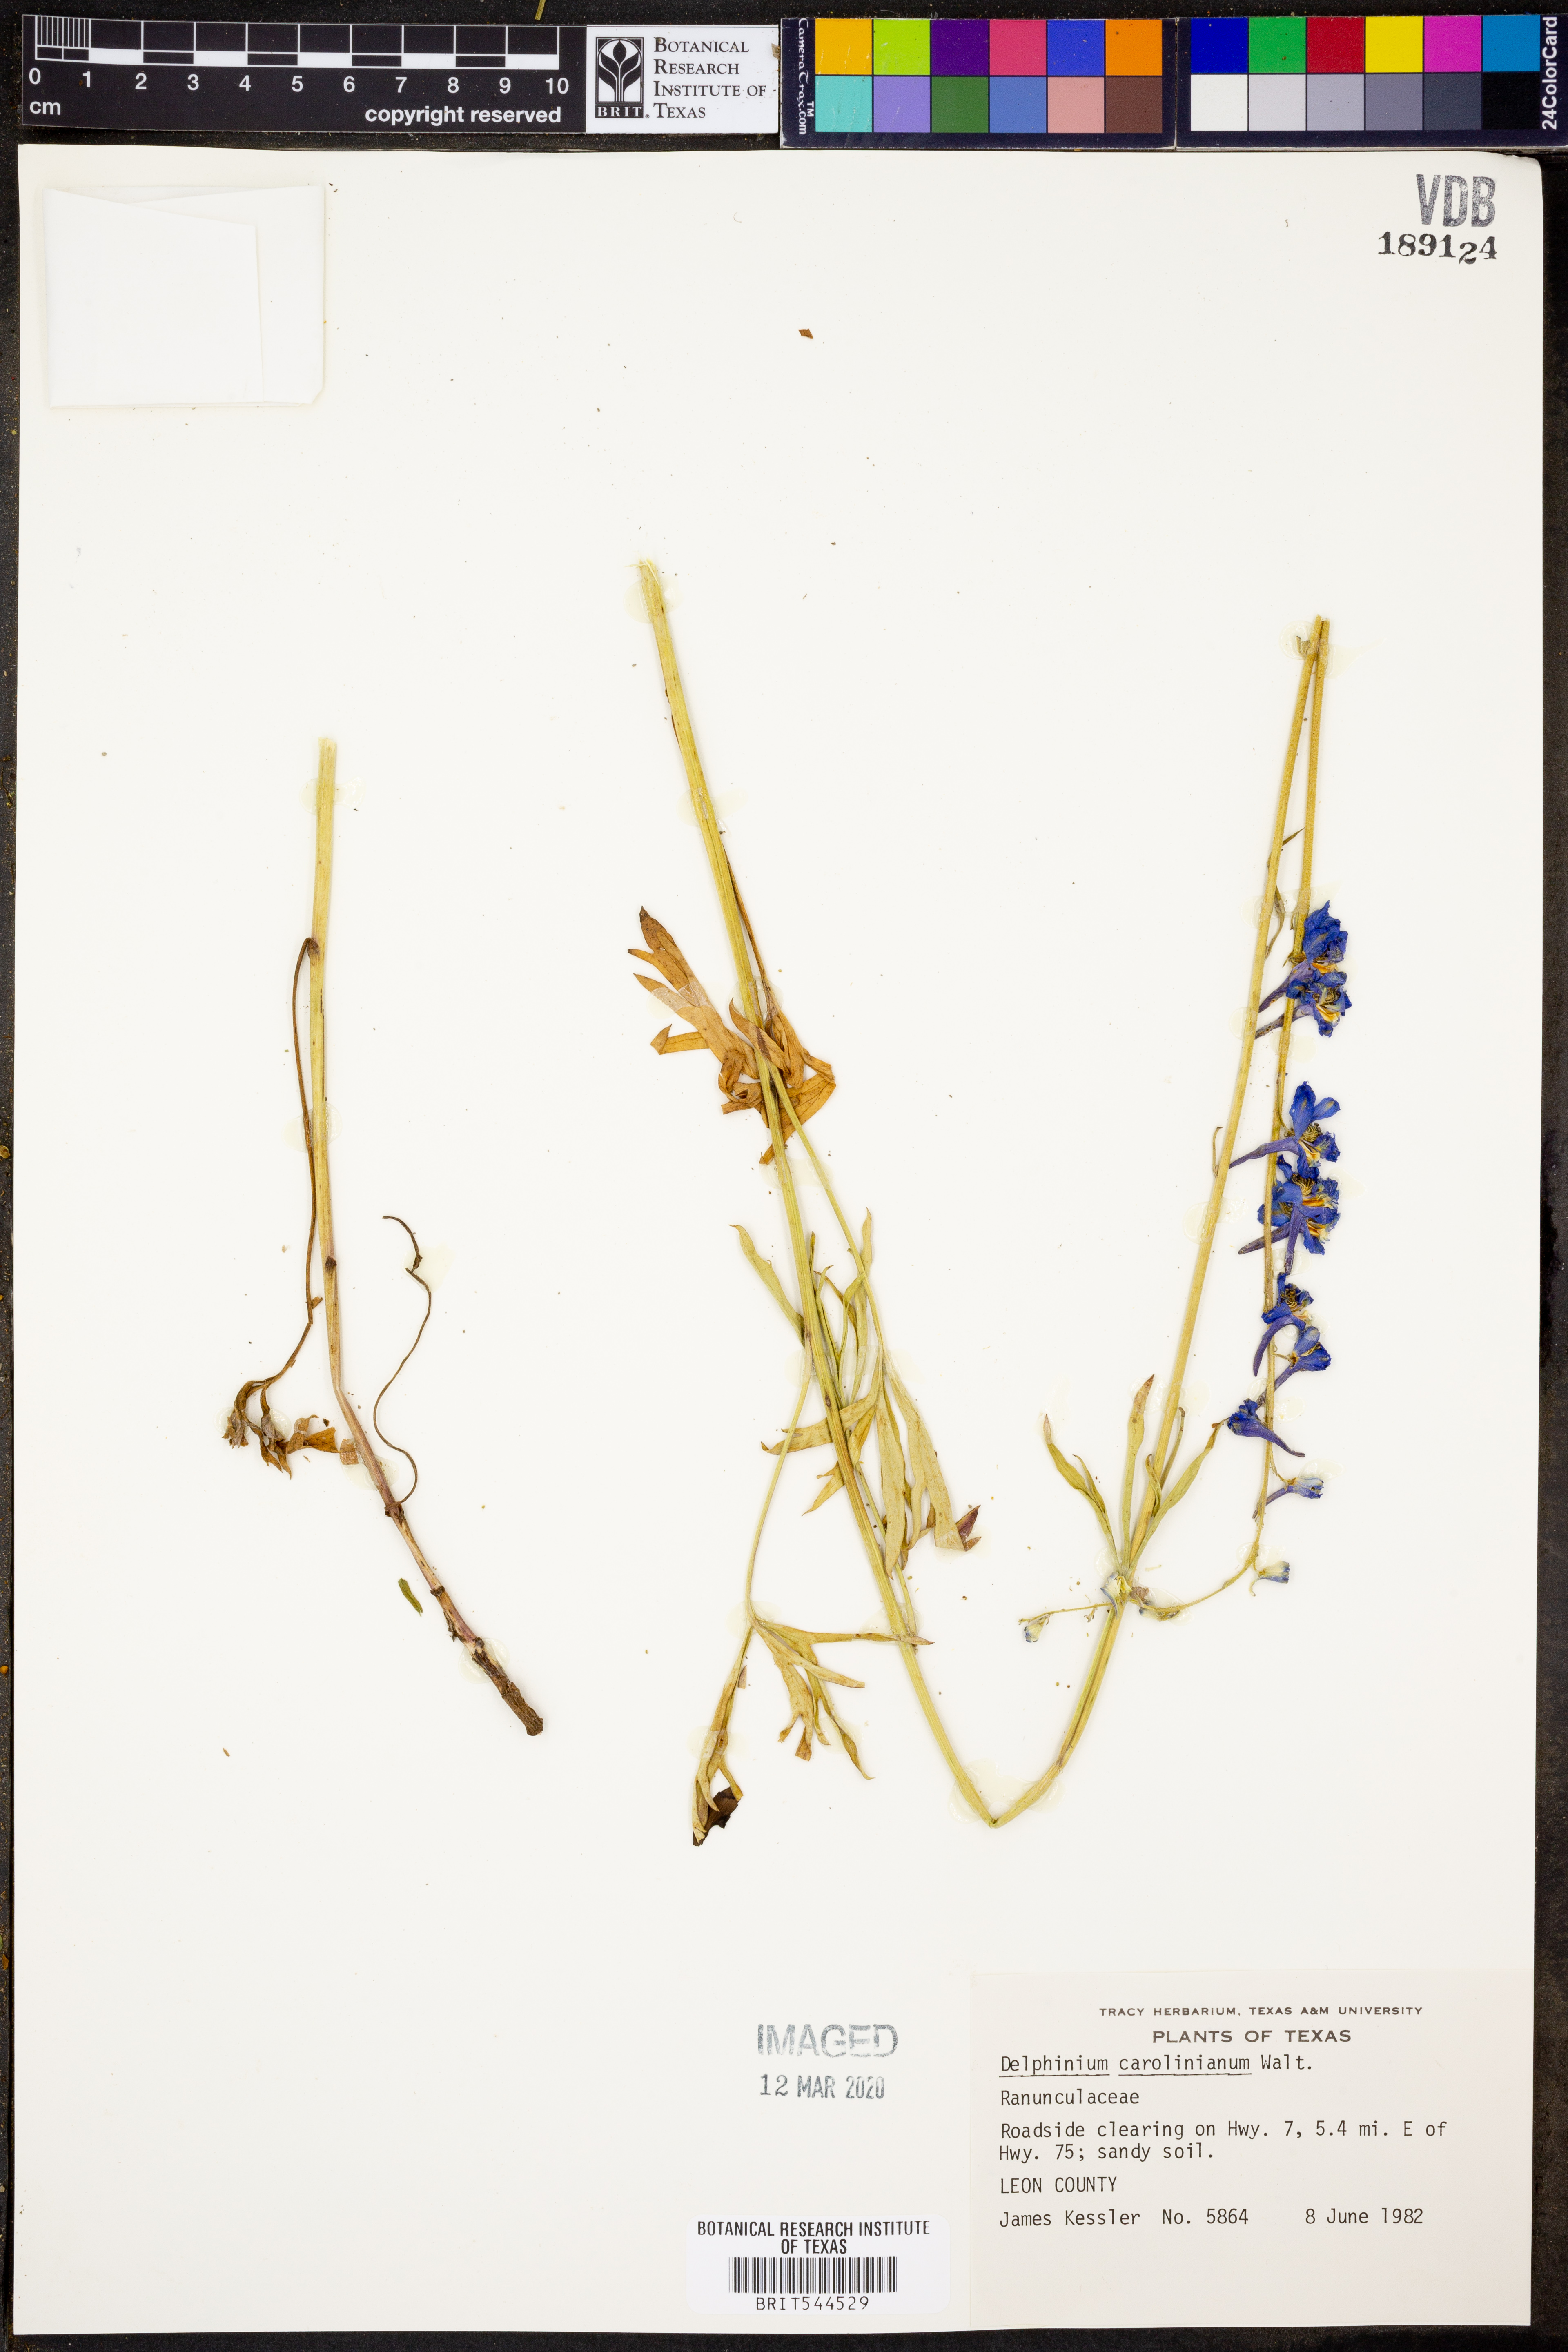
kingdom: Plantae
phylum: Tracheophyta
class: Magnoliopsida
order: Ranunculales
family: Ranunculaceae
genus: Delphinium
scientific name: Delphinium carolinianum
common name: Carolina larkspur
